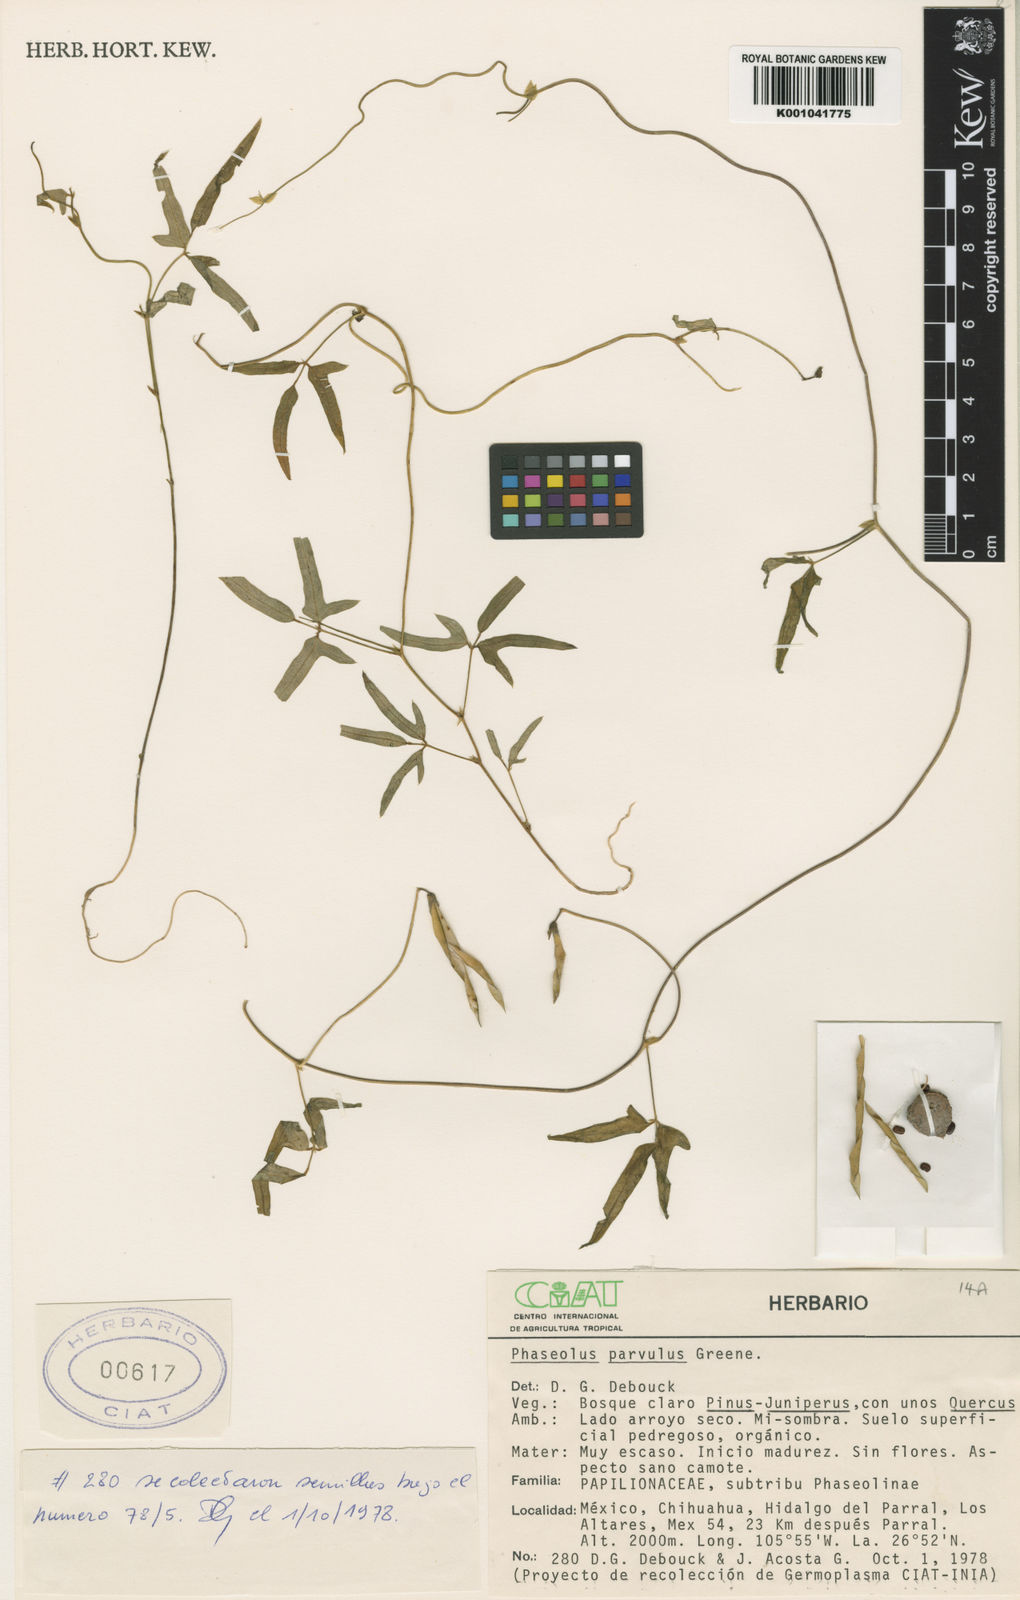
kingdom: Plantae
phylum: Tracheophyta
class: Magnoliopsida
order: Fabales
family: Fabaceae
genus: Phaseolus
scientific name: Phaseolus parvulus
